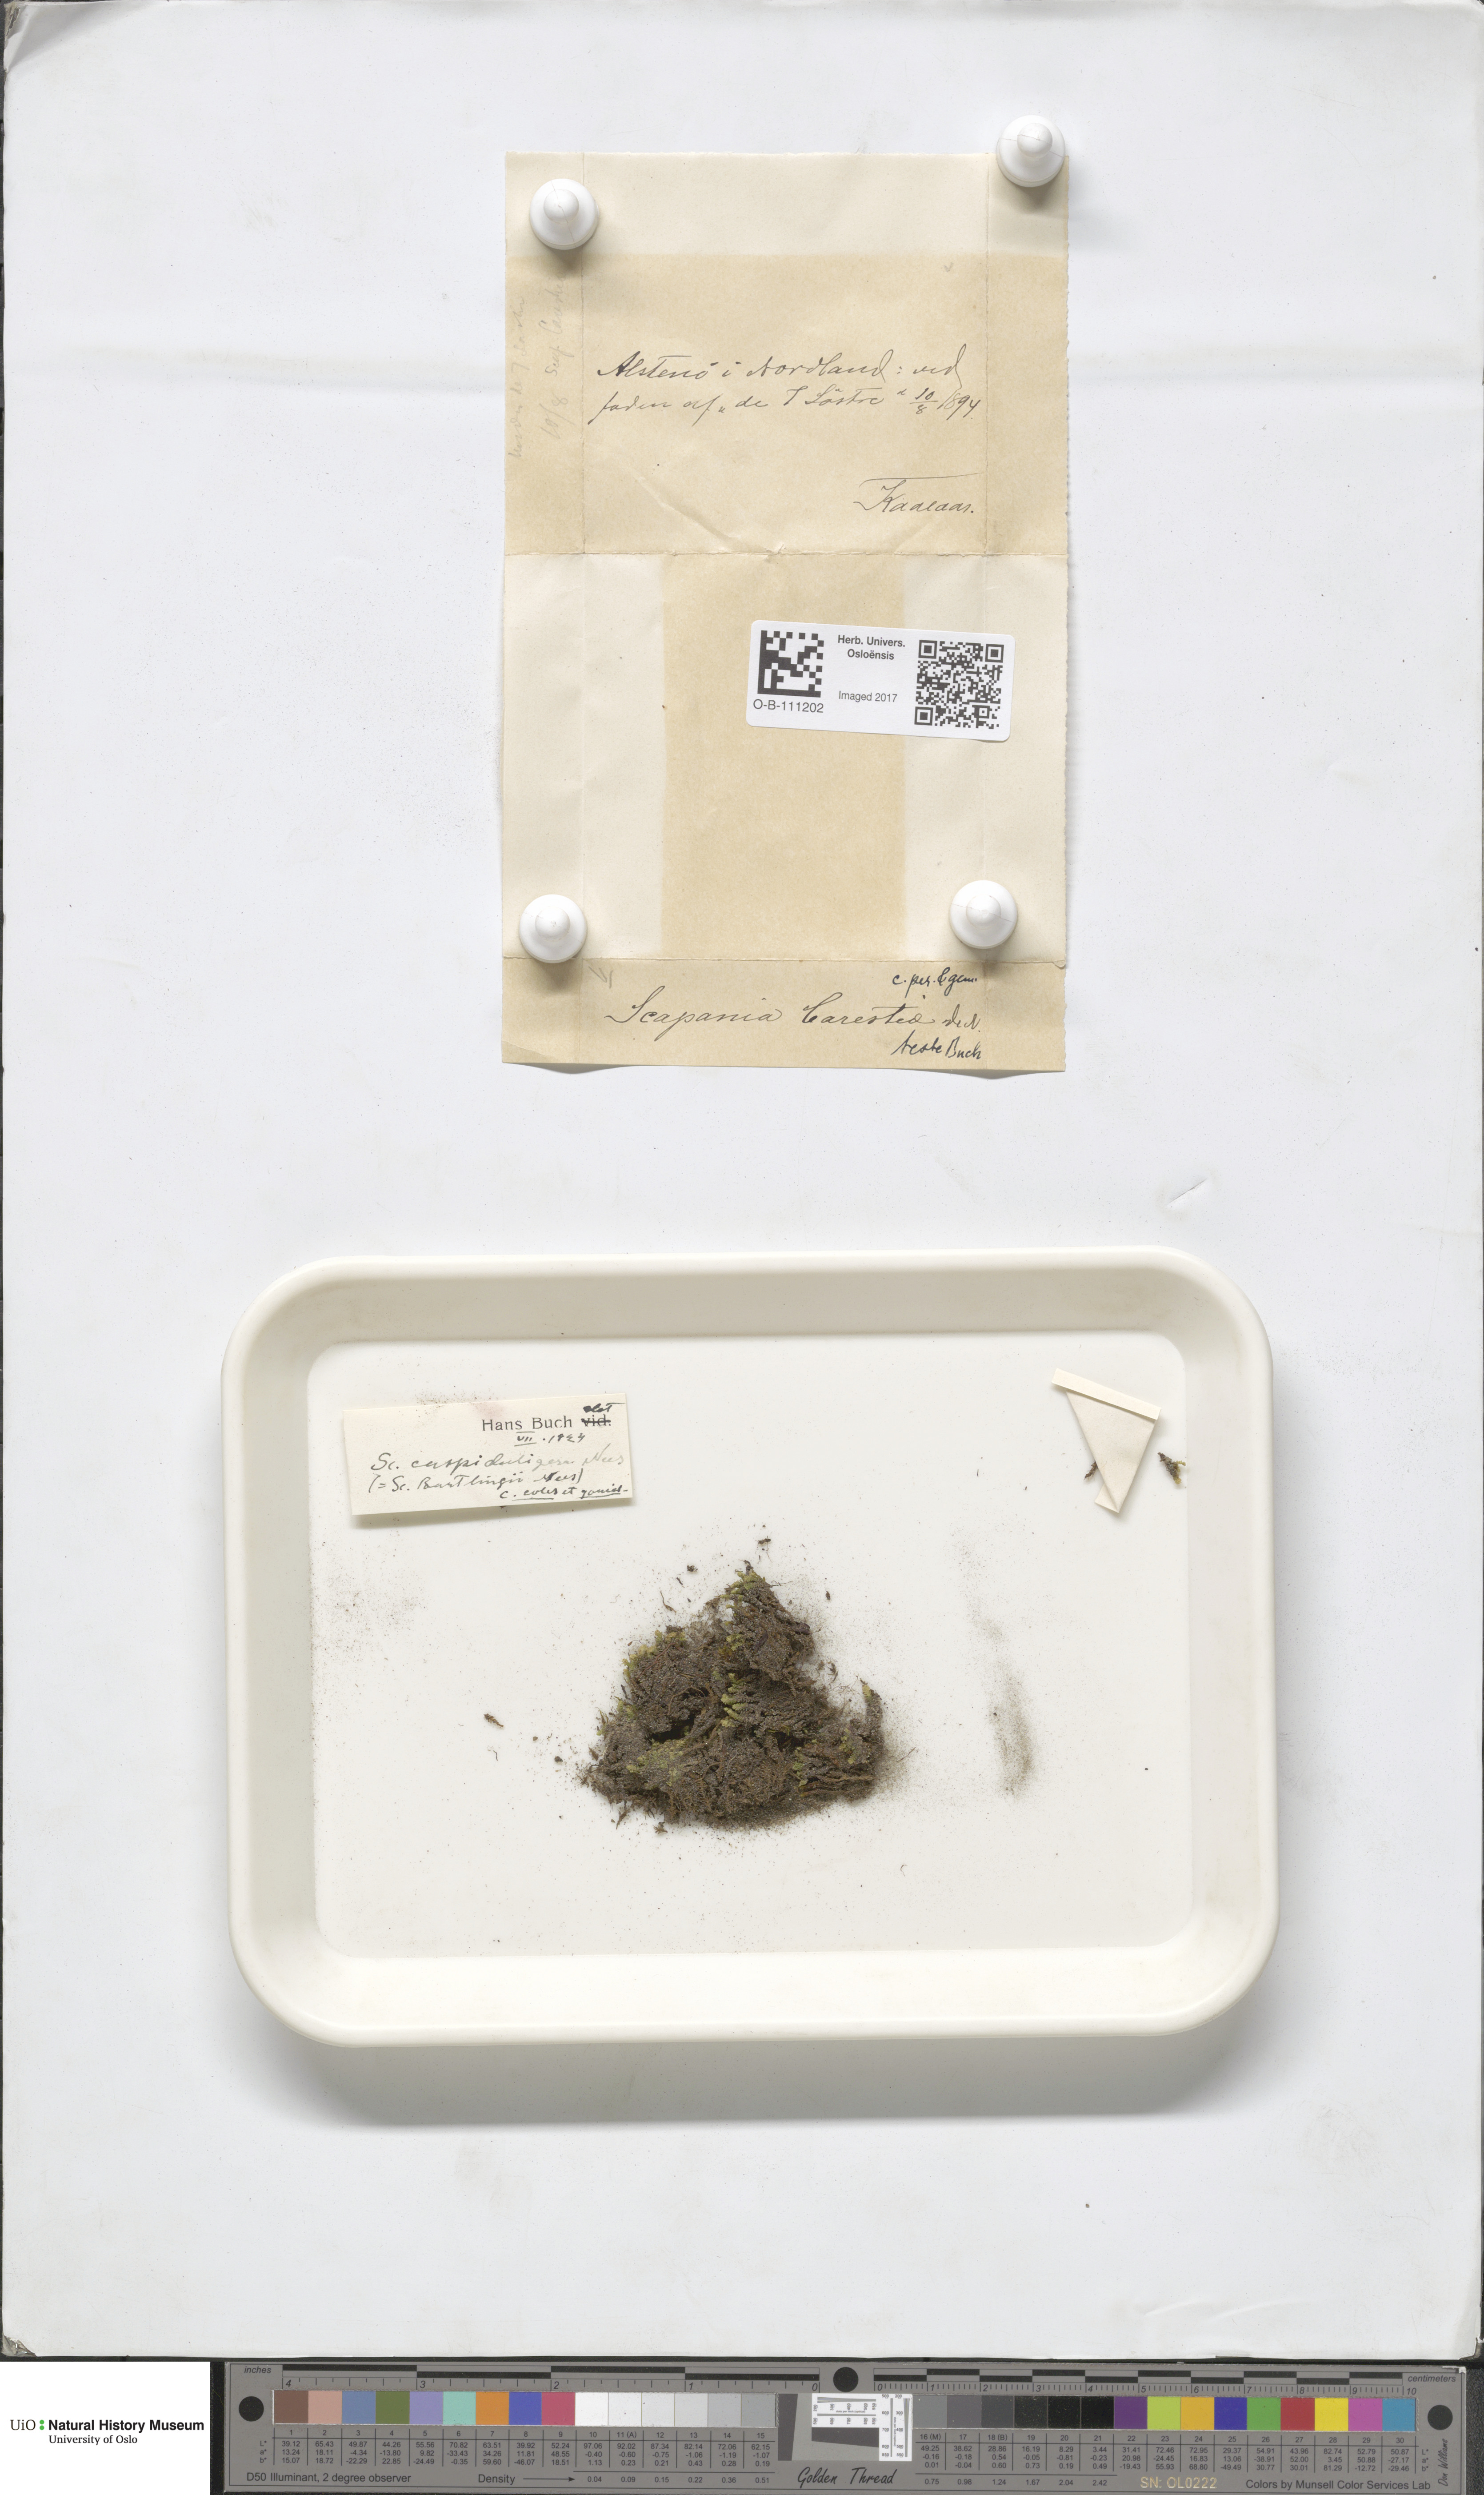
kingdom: Plantae
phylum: Marchantiophyta
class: Jungermanniopsida
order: Jungermanniales
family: Scapaniaceae
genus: Scapania
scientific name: Scapania cuspiduligera
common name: Untidy earwort
